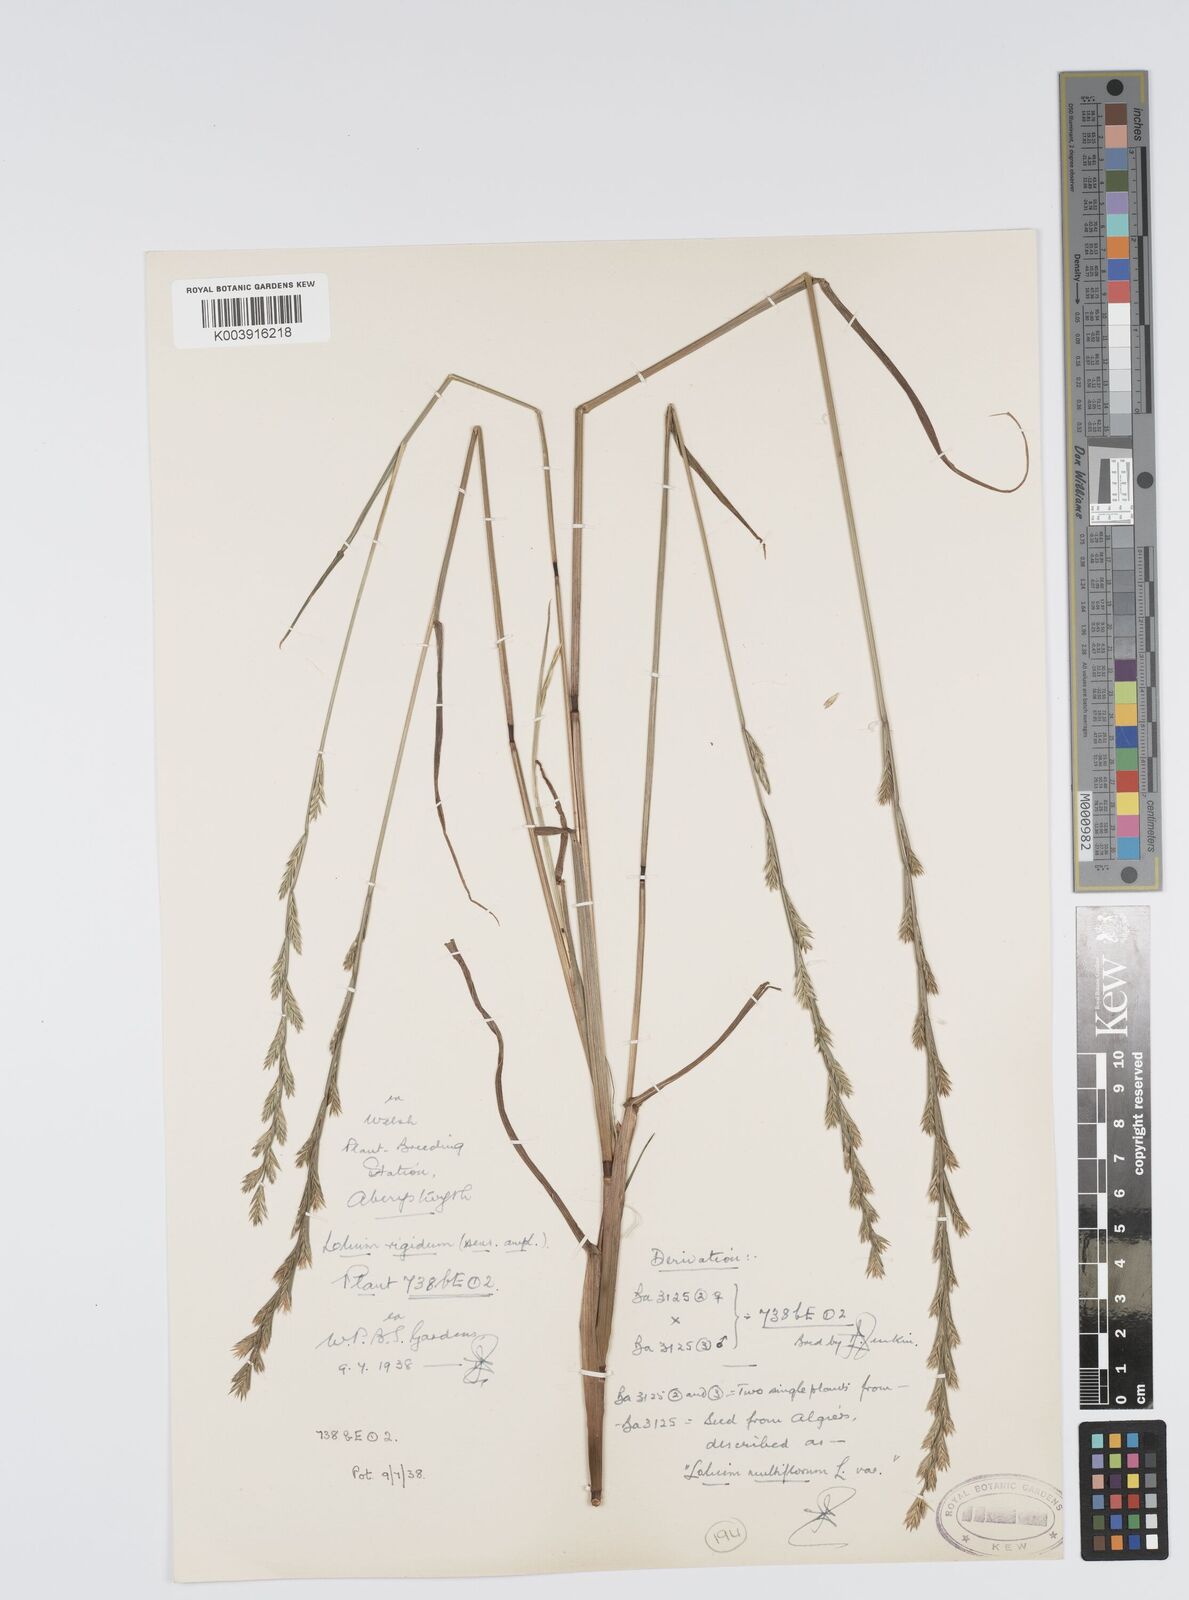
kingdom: Plantae
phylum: Tracheophyta
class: Liliopsida
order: Poales
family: Poaceae
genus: Lolium
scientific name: Lolium rigidum
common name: Wimmera ryegrass
